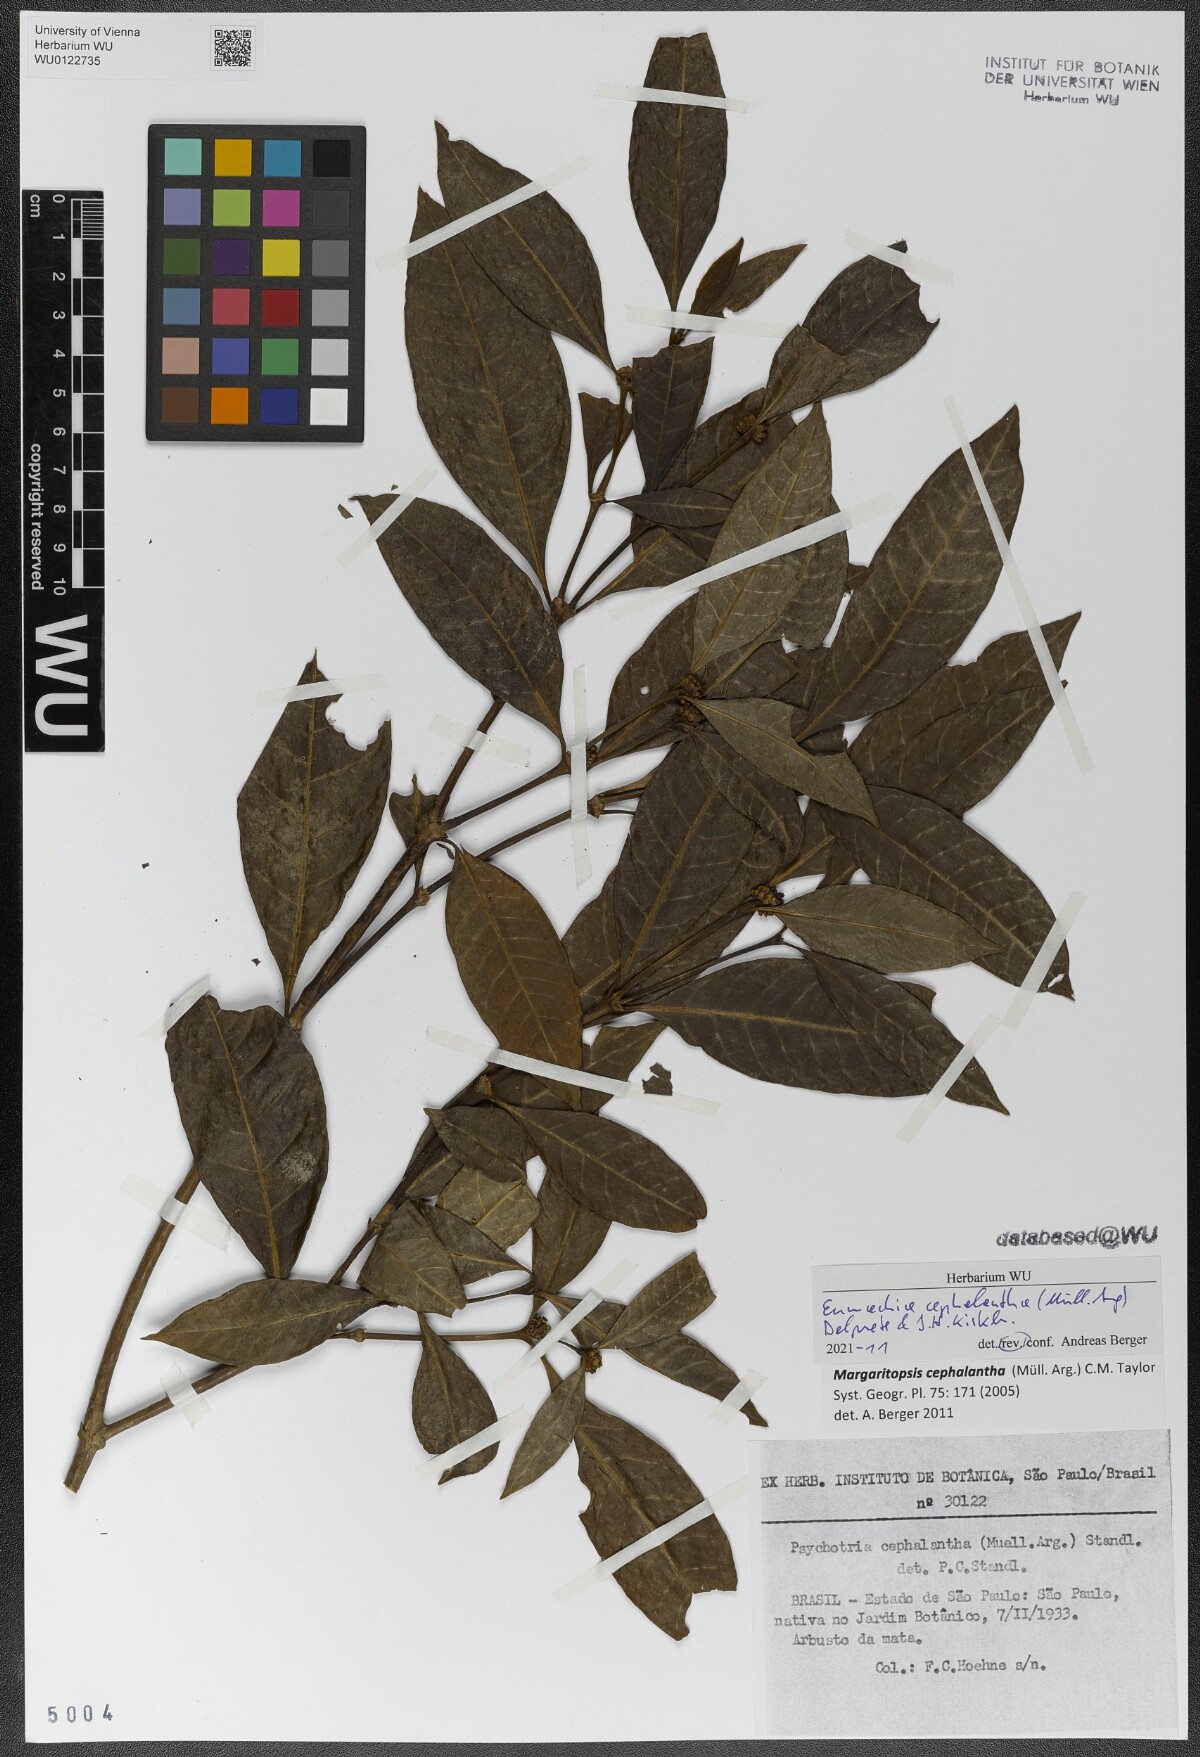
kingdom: Plantae
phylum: Tracheophyta
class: Magnoliopsida
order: Gentianales
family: Rubiaceae
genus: Eumachia
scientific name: Eumachia cephalantha
